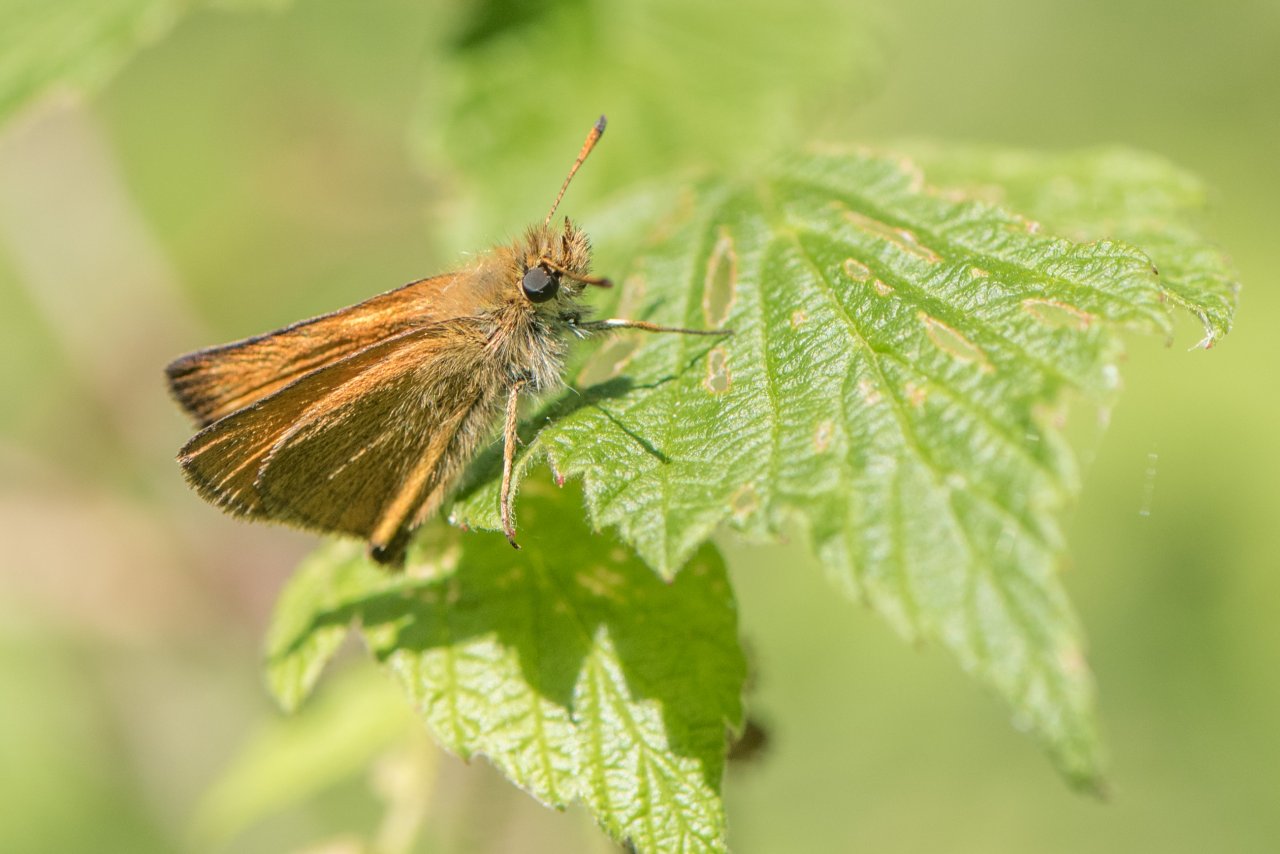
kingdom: Animalia
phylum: Arthropoda
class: Insecta
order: Lepidoptera
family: Hesperiidae
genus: Thymelicus
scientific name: Thymelicus lineola
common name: European Skipper
